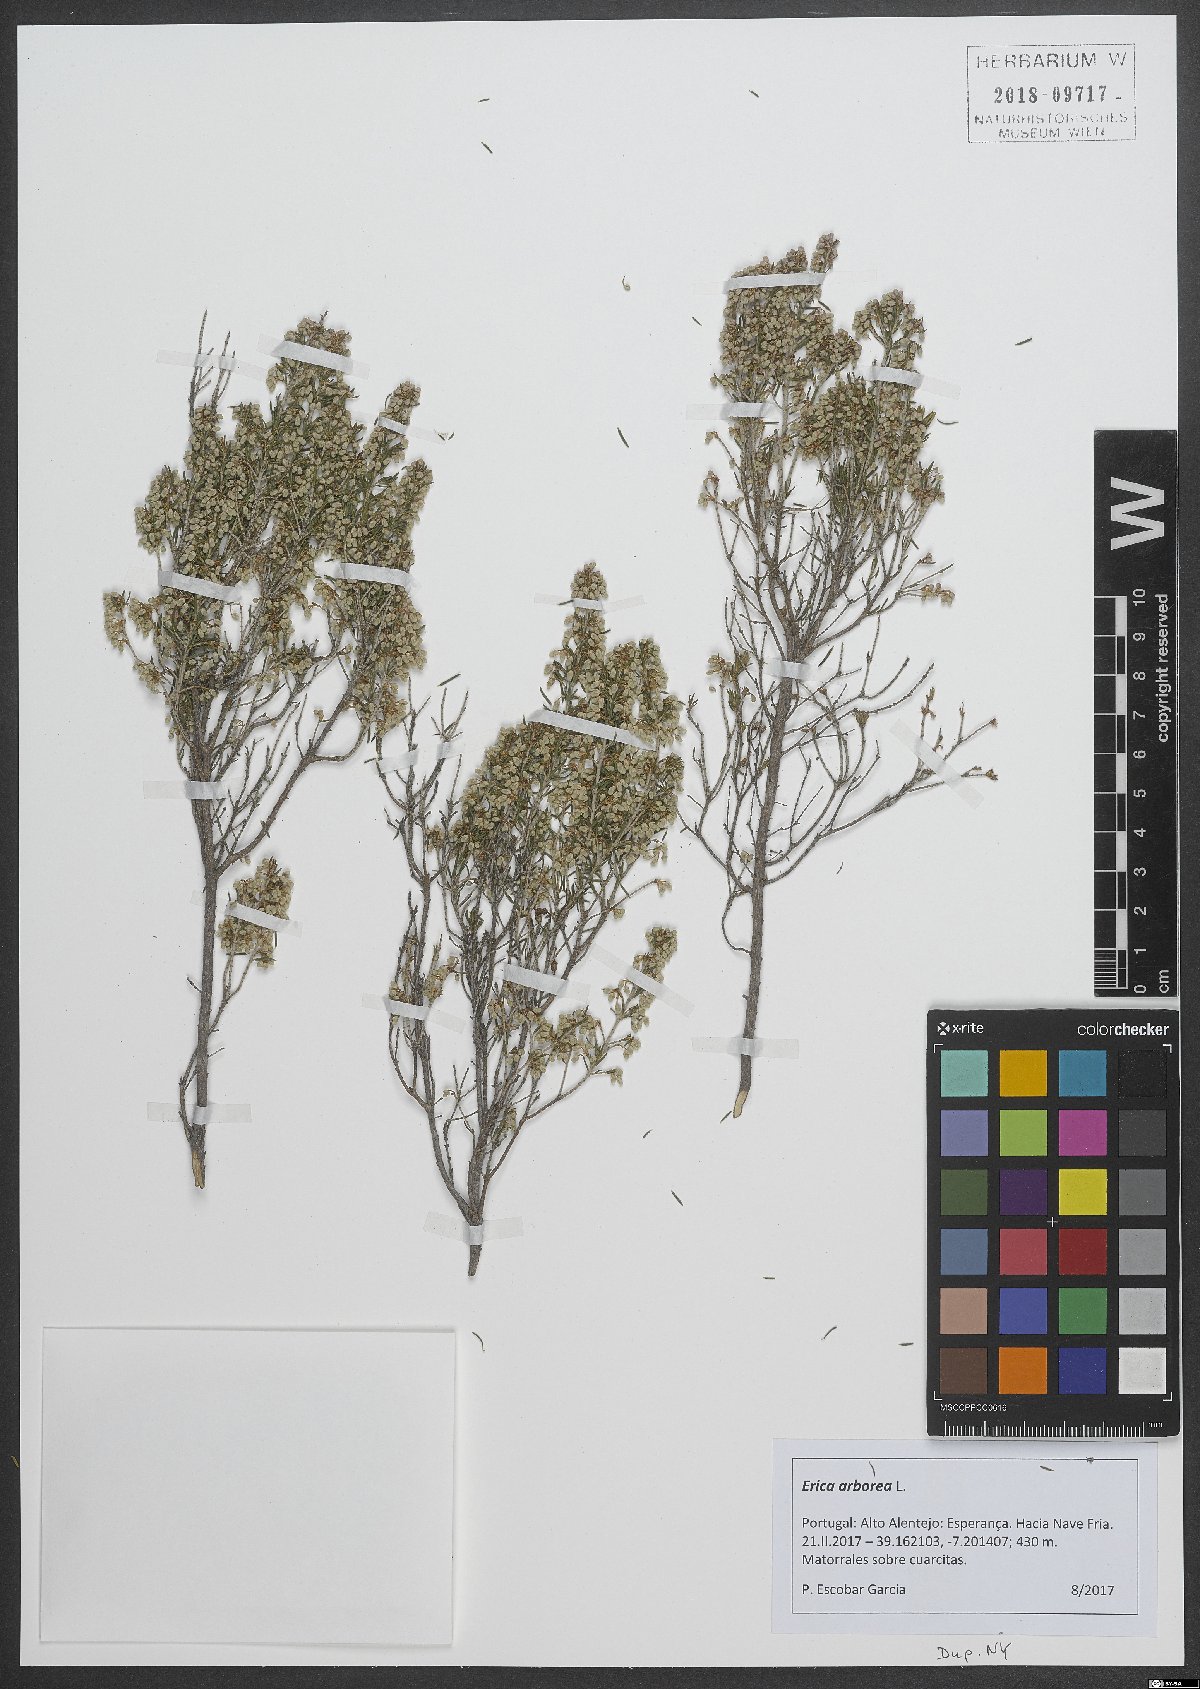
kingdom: Plantae
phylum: Tracheophyta
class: Magnoliopsida
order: Ericales
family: Ericaceae
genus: Erica
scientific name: Erica arborea
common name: Tree heath
